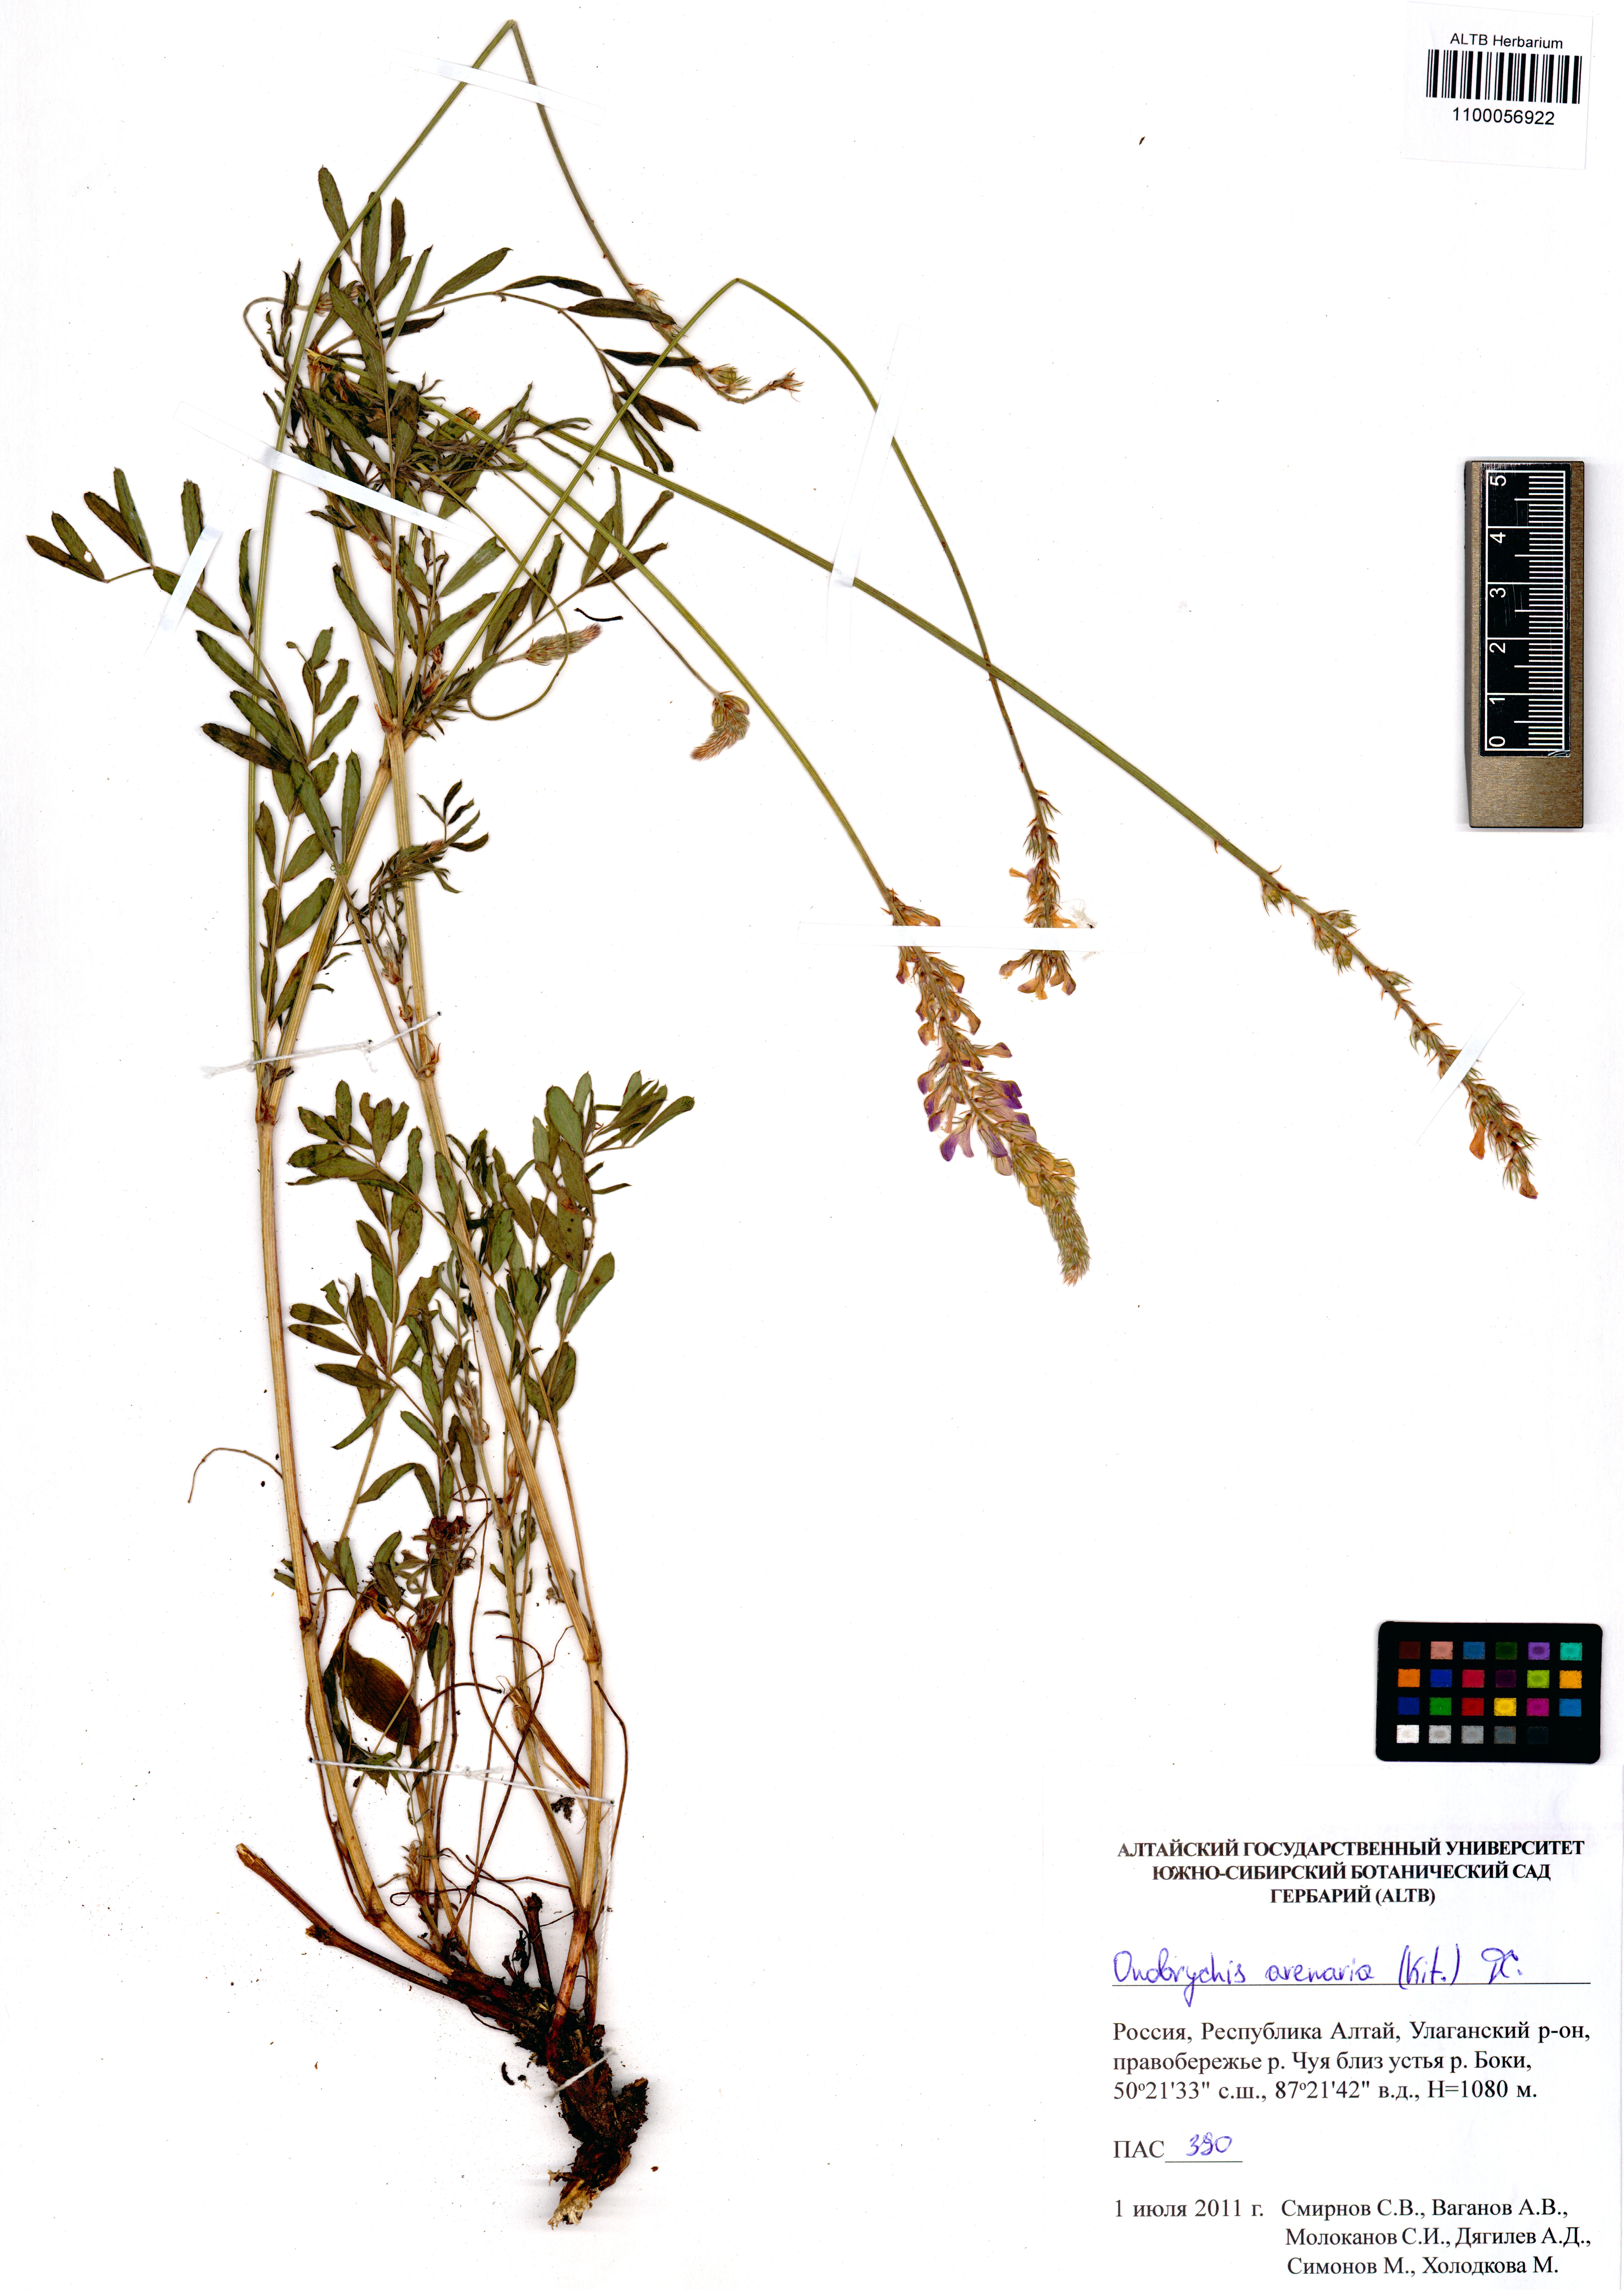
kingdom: Plantae
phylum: Tracheophyta
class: Magnoliopsida
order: Fabales
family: Fabaceae
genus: Onobrychis
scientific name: Onobrychis arenaria
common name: Sand esparcet
